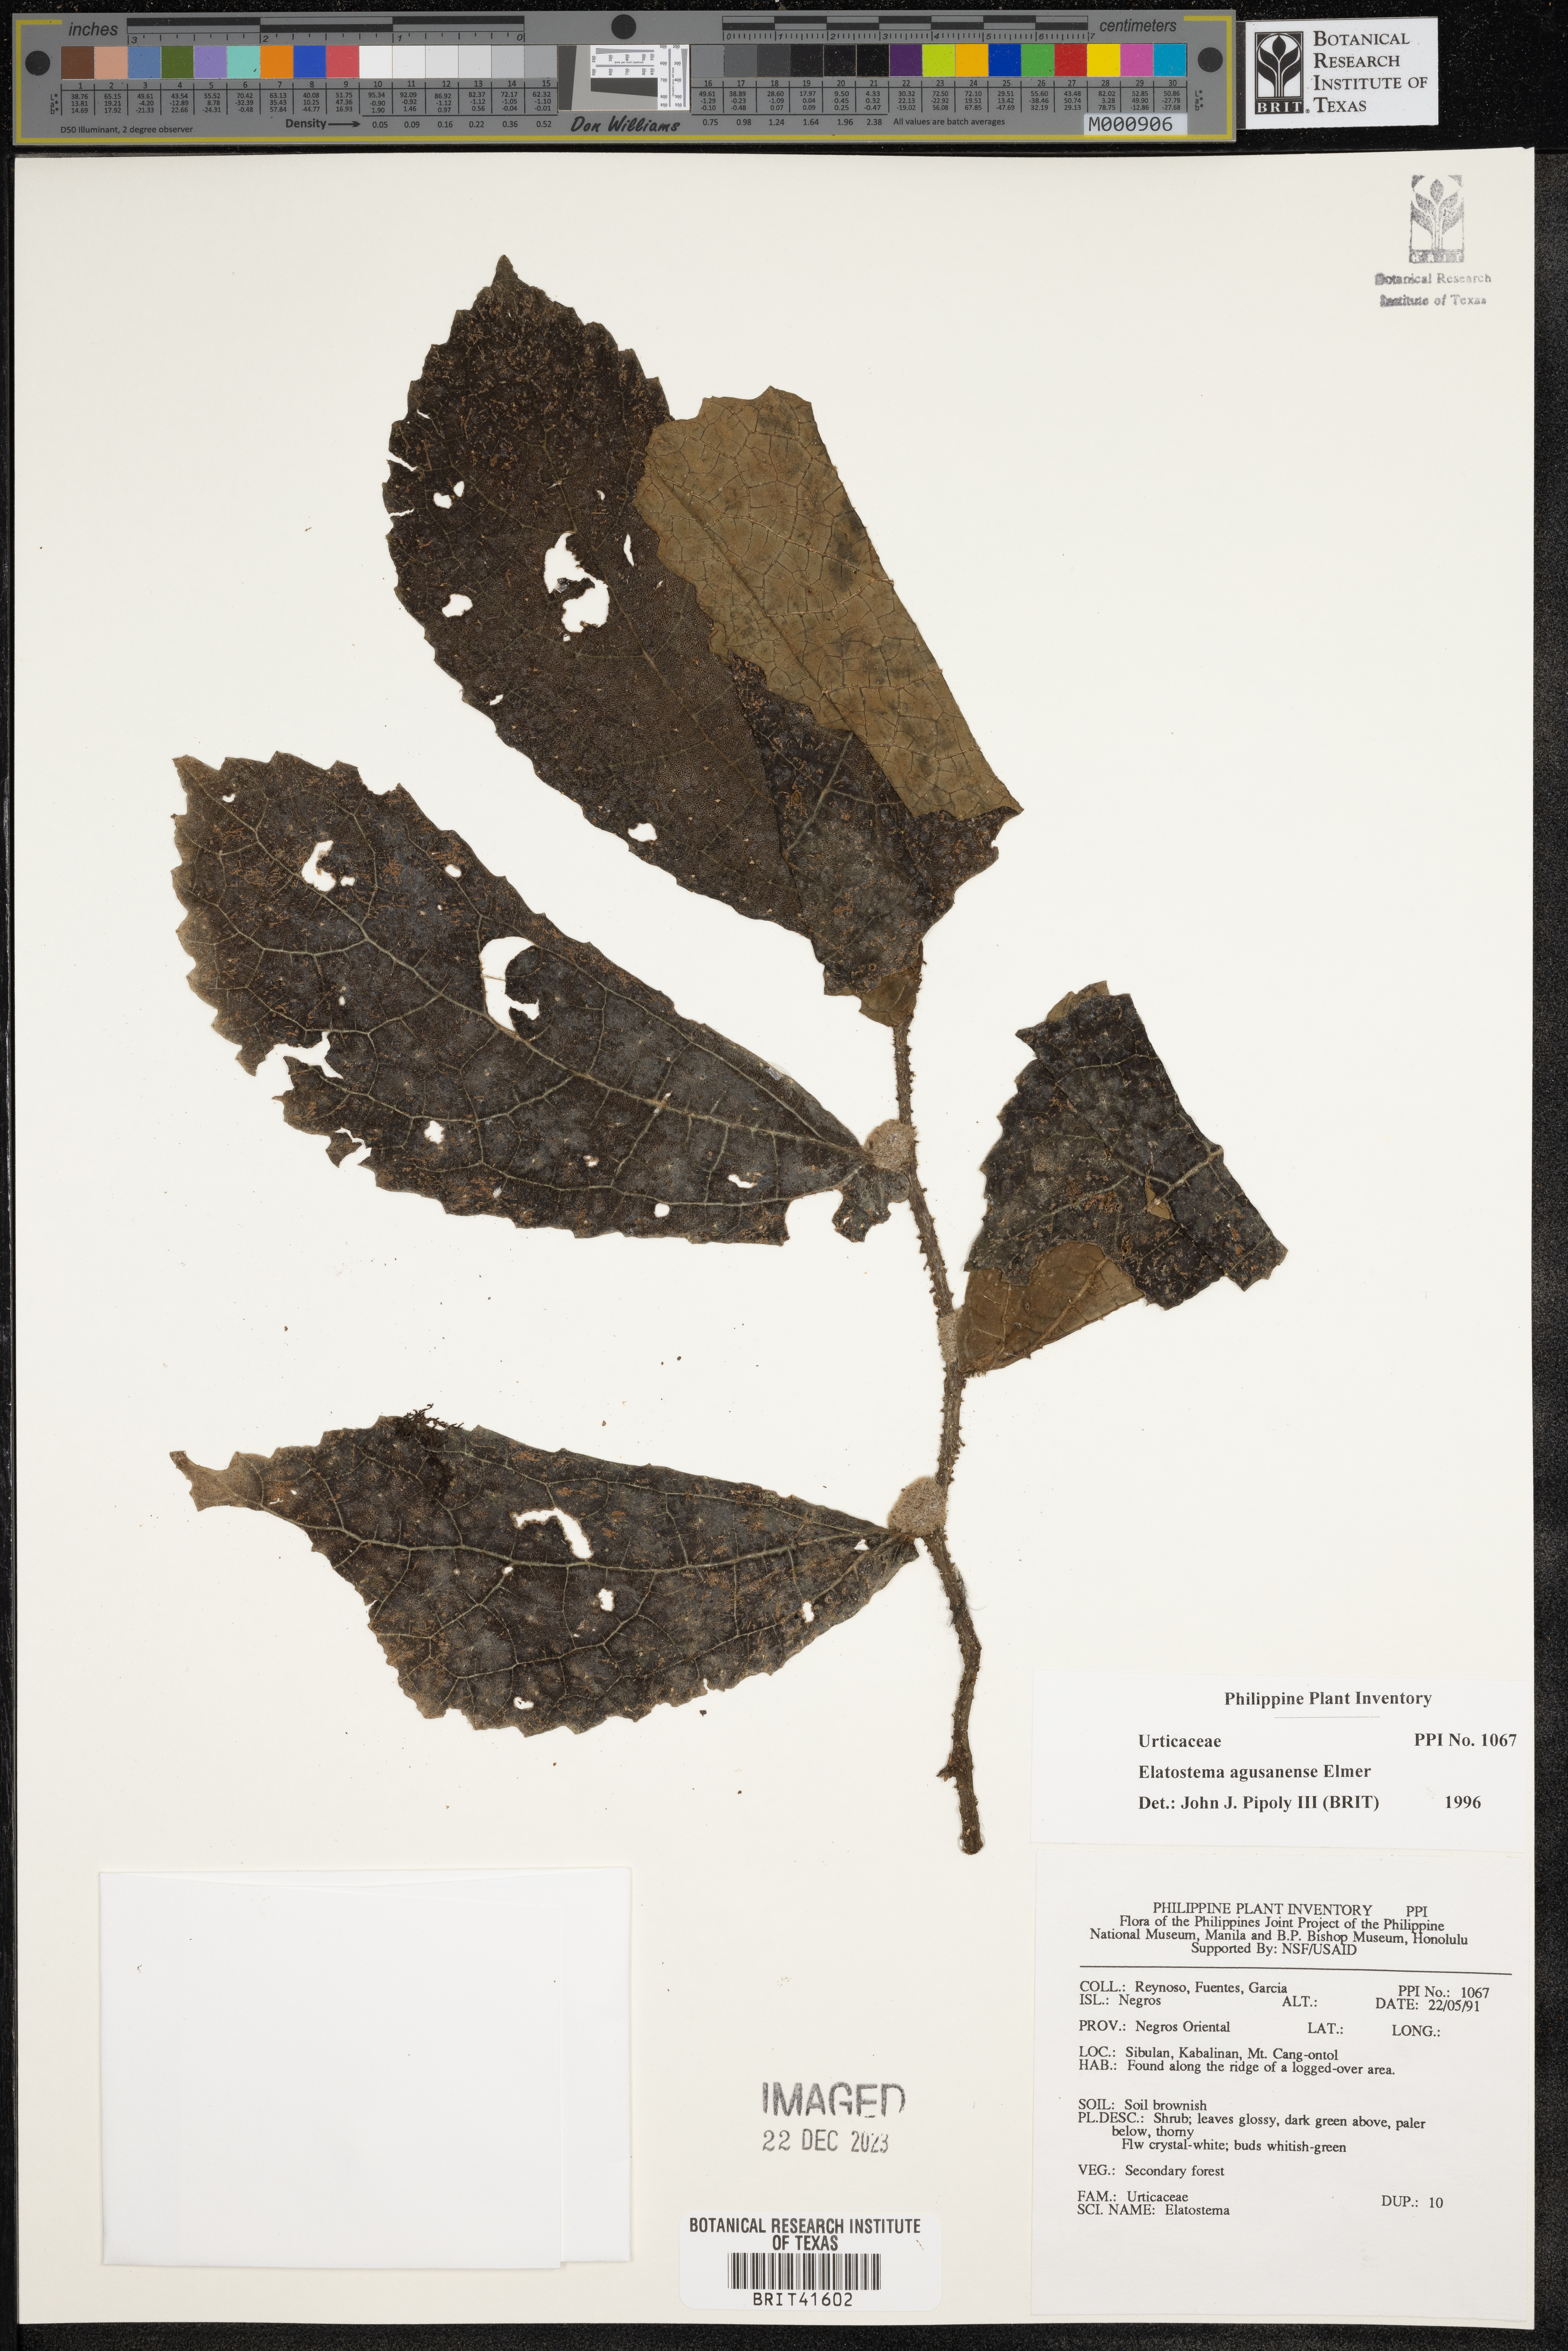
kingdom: Plantae
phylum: Tracheophyta
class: Magnoliopsida
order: Rosales
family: Urticaceae
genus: Elatostema
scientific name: Elatostema agusanense
